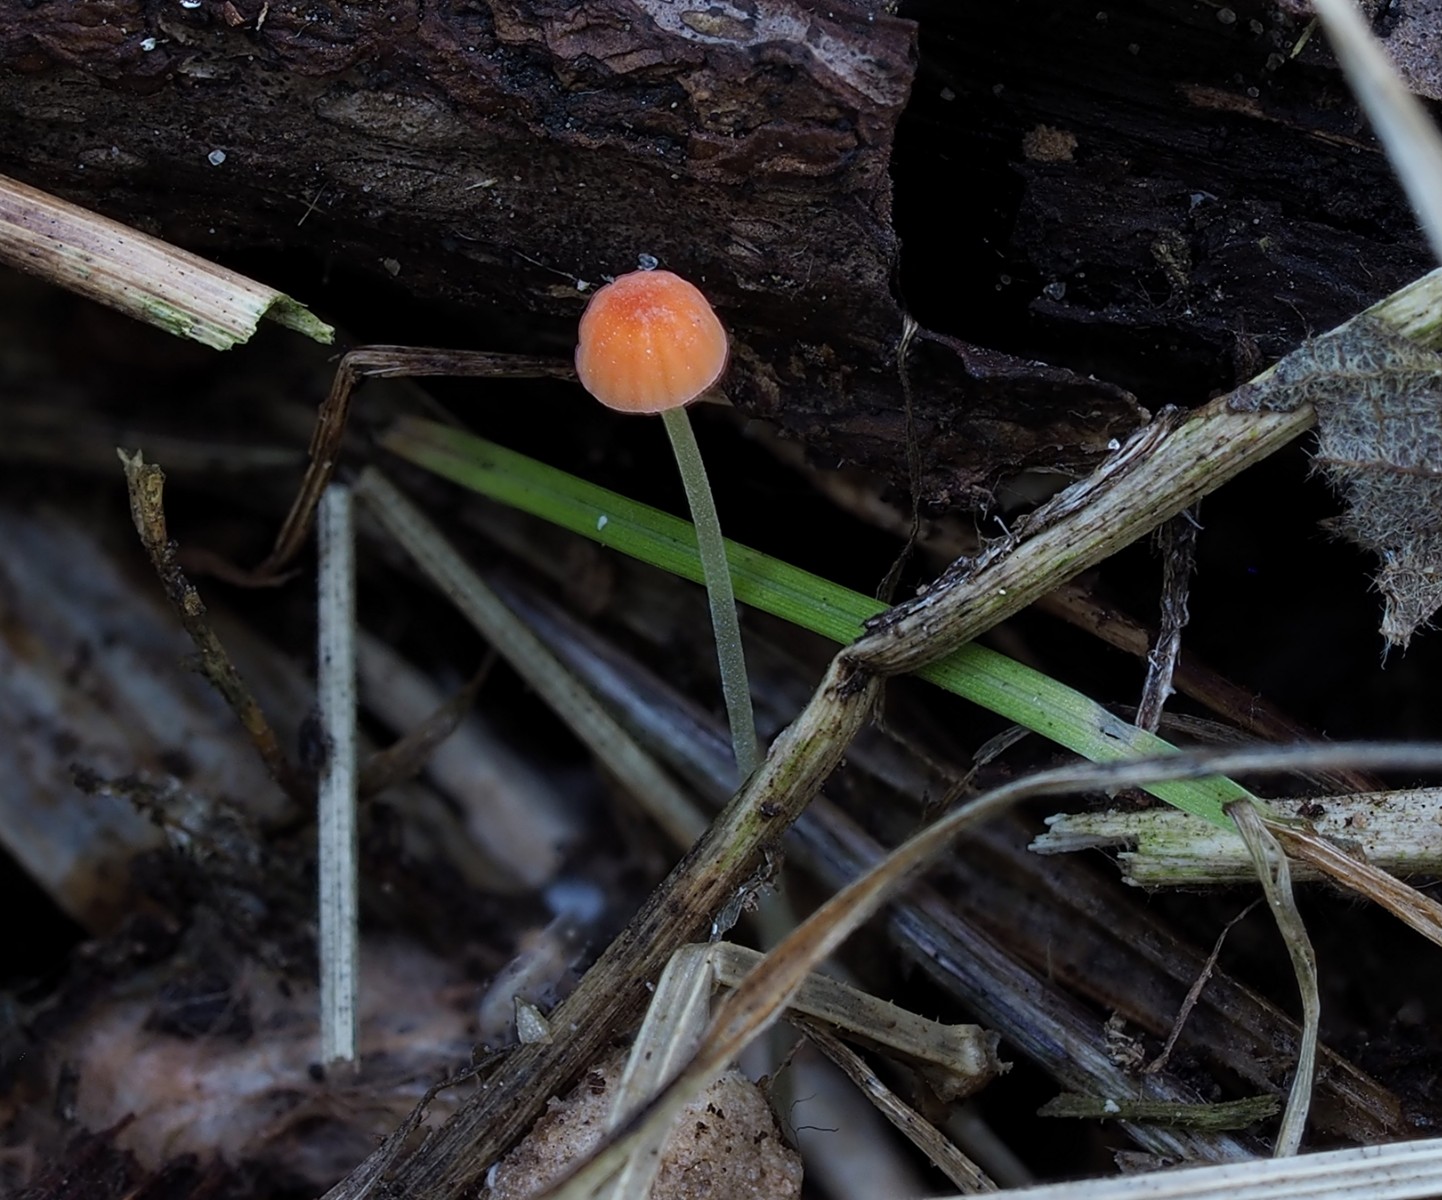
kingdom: Fungi
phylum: Basidiomycota
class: Agaricomycetes
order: Agaricales
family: Mycenaceae
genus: Mycena
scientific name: Mycena acicula
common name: orange huesvamp
